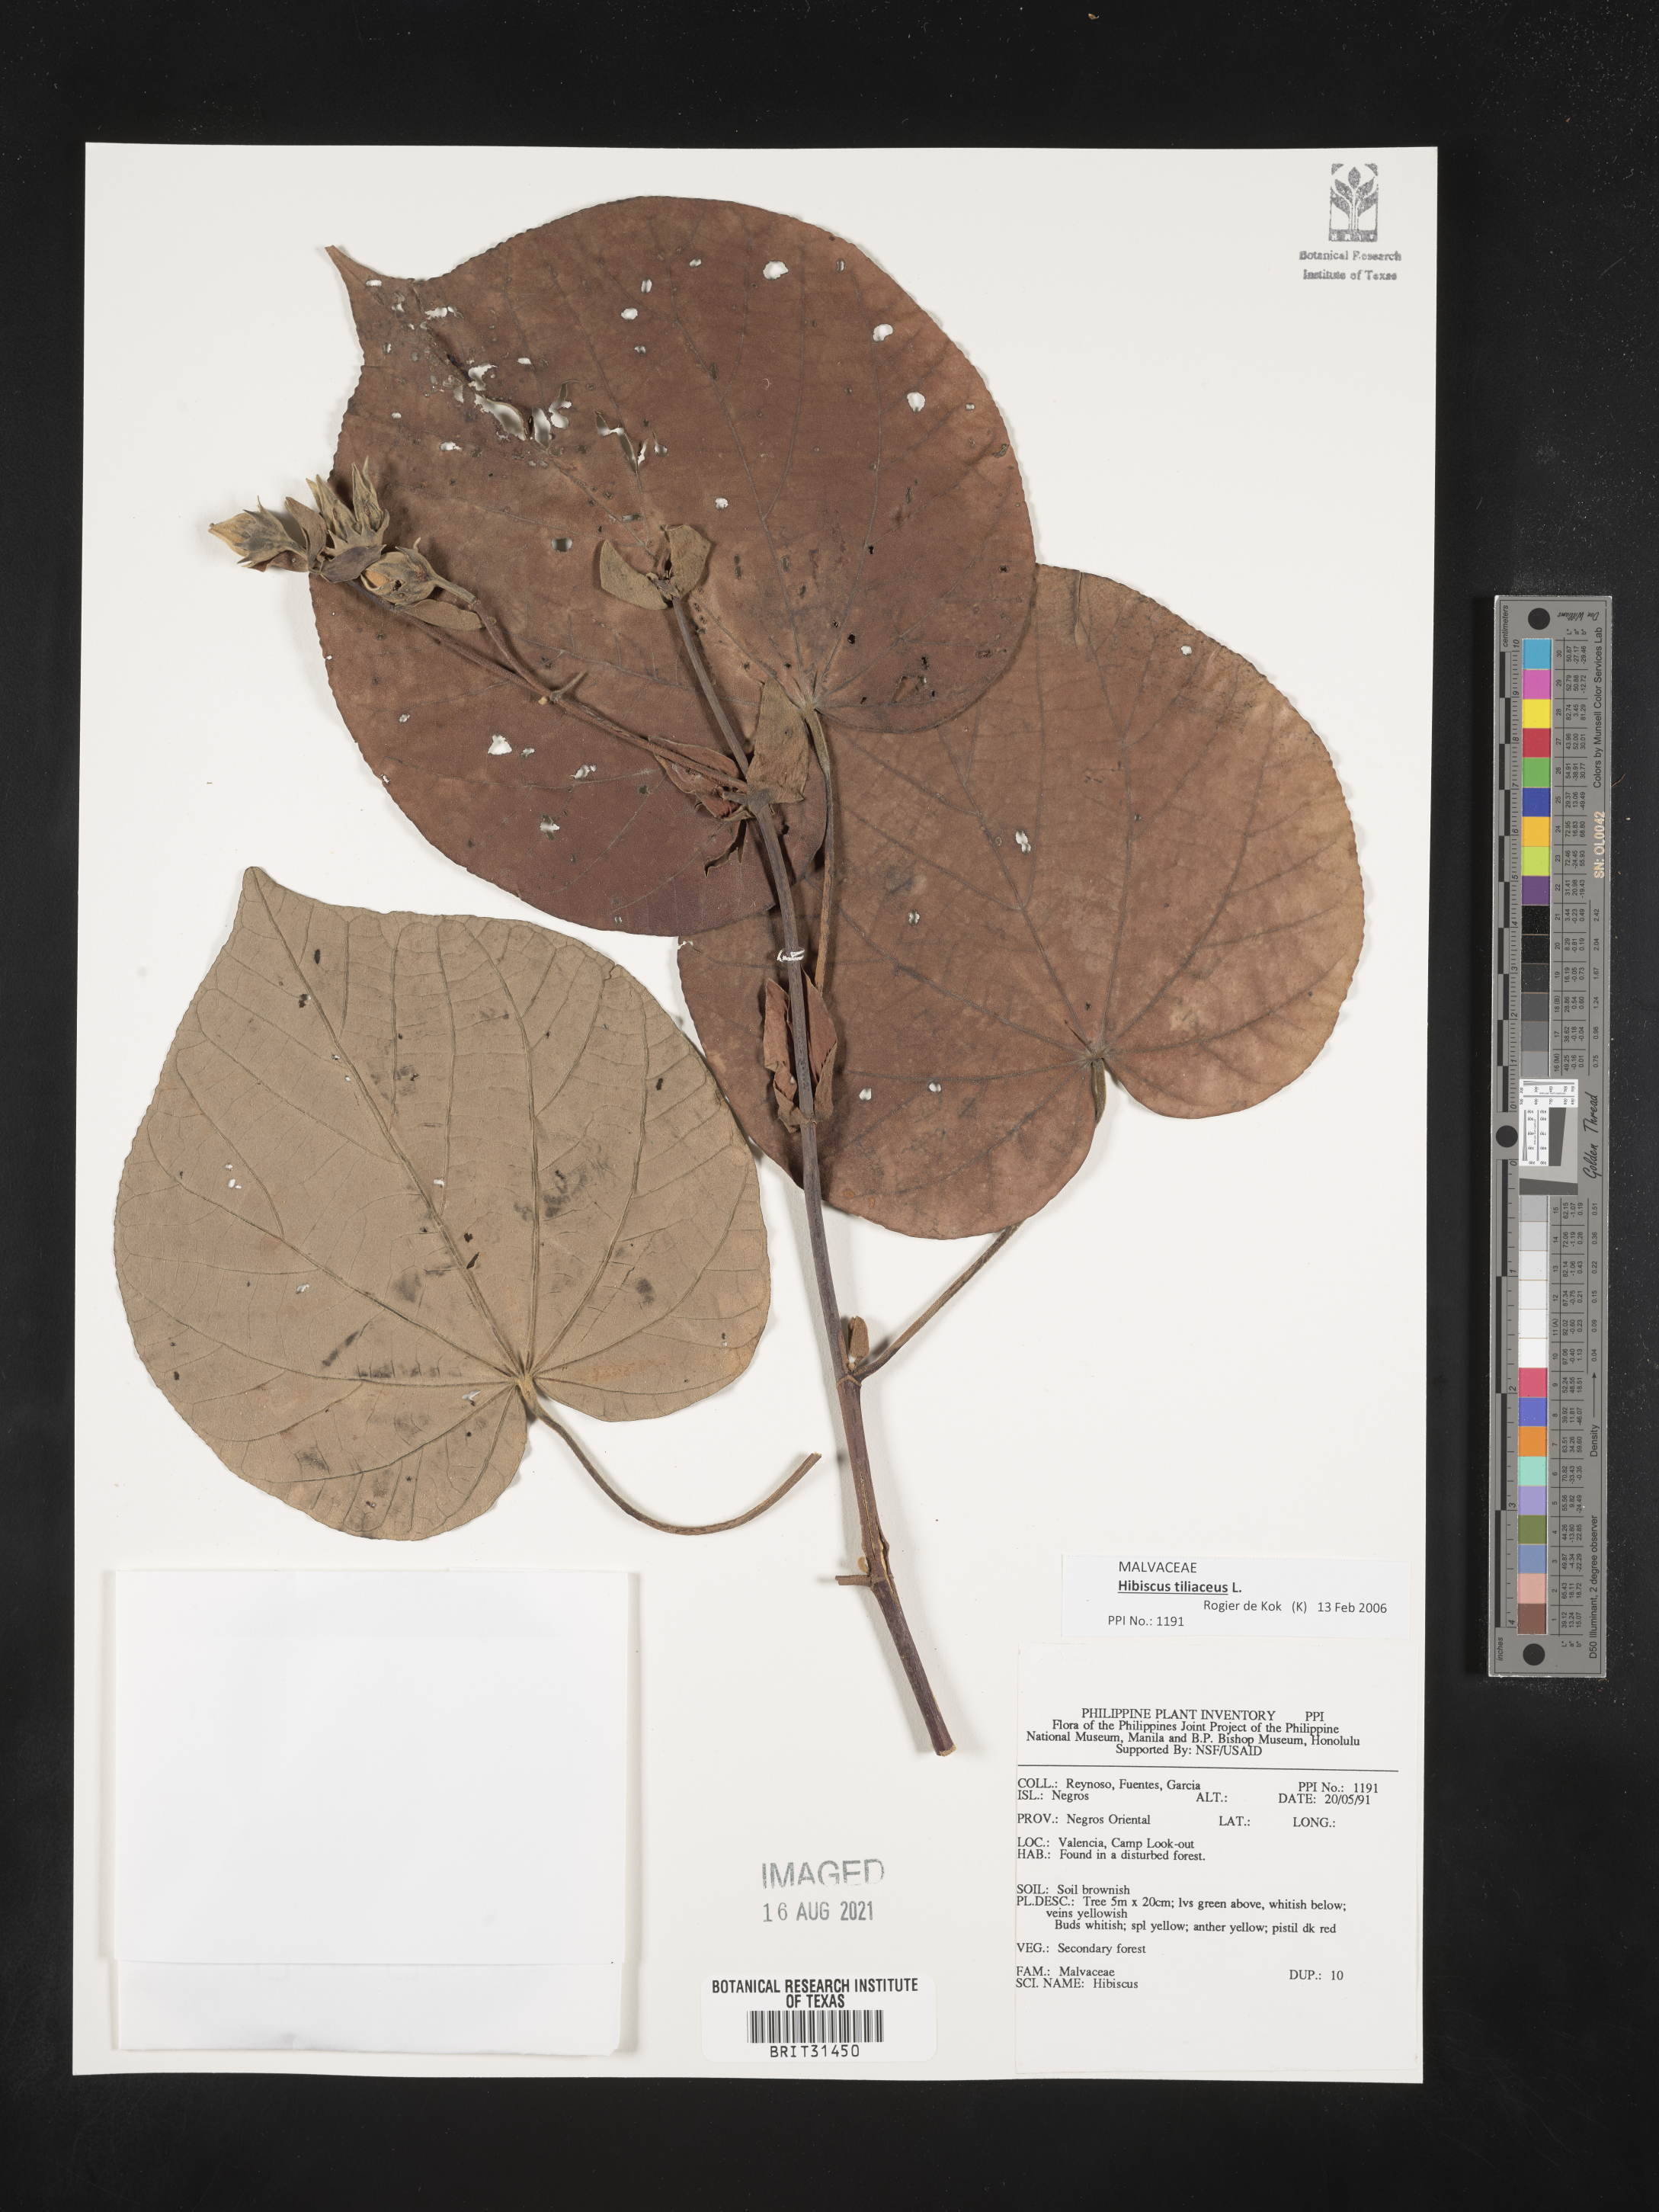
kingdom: Plantae
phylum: Tracheophyta
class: Magnoliopsida
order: Malvales
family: Malvaceae
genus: Hibiscus
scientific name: Hibiscus
